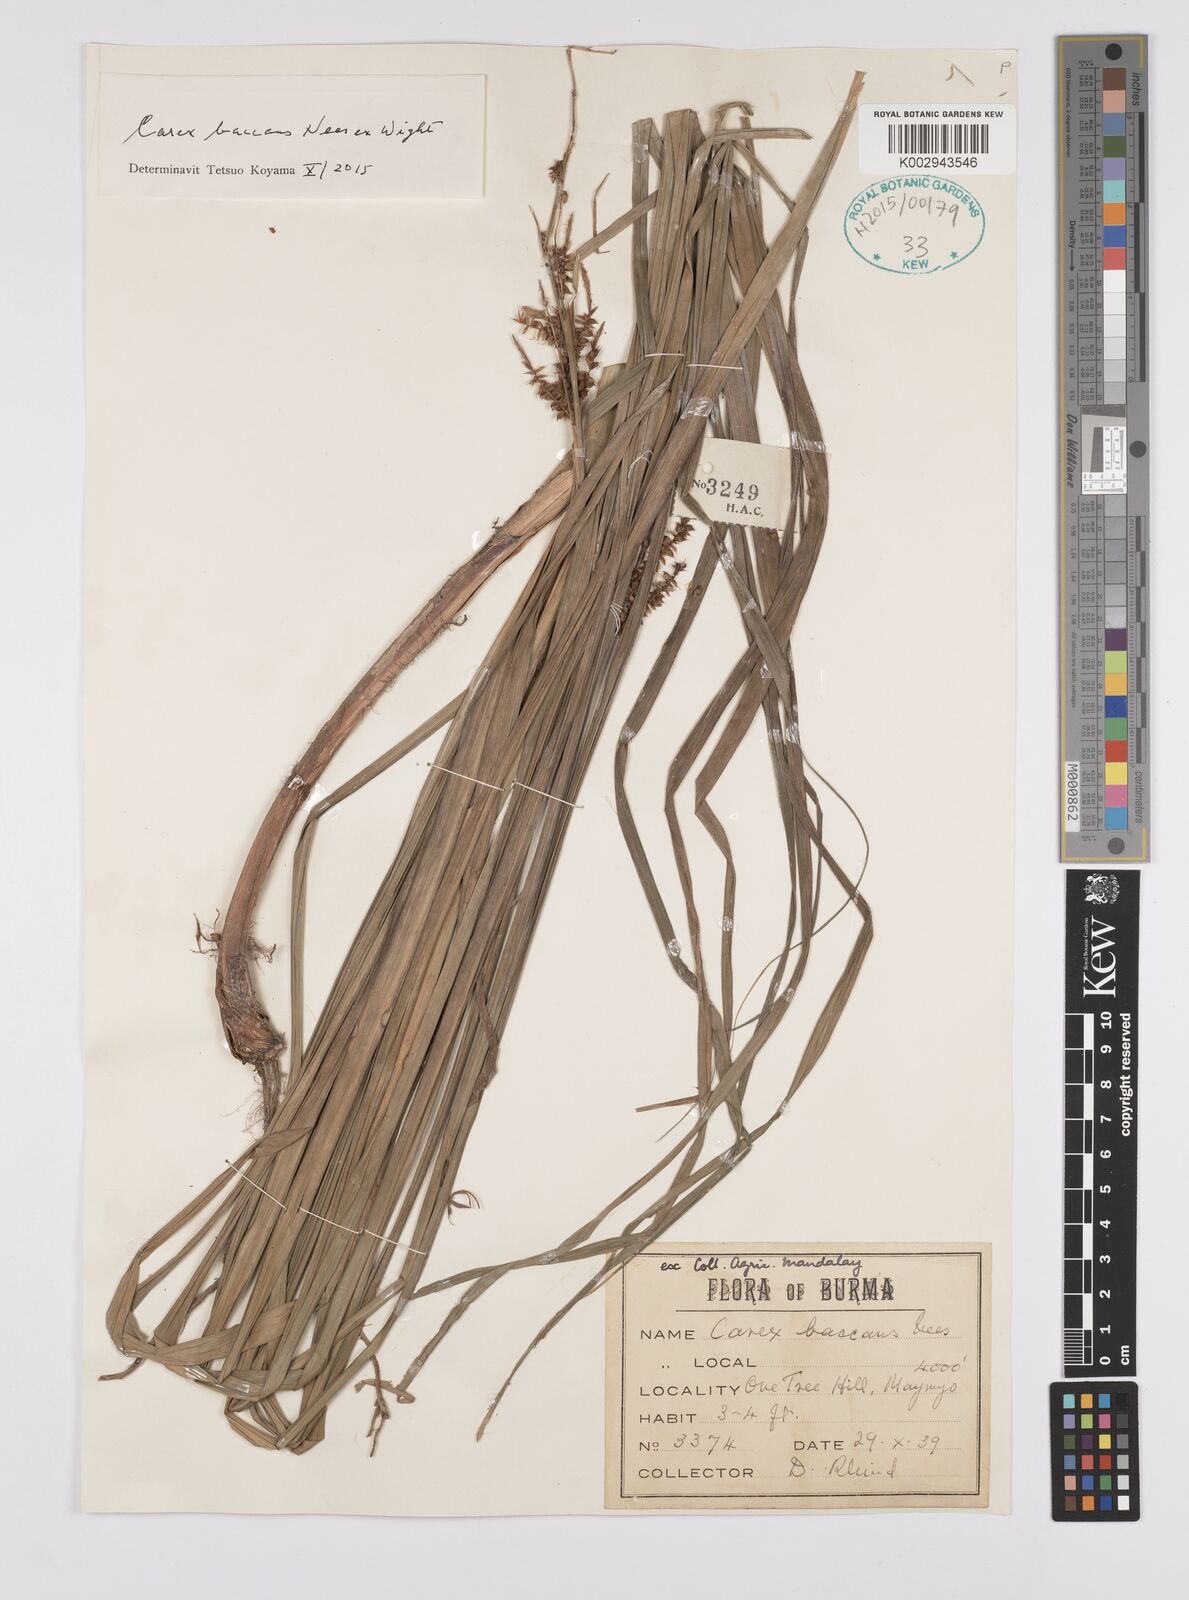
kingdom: Plantae
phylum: Tracheophyta
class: Liliopsida
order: Poales
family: Cyperaceae
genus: Carex
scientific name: Carex baccans
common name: Crimson seeded sedge
